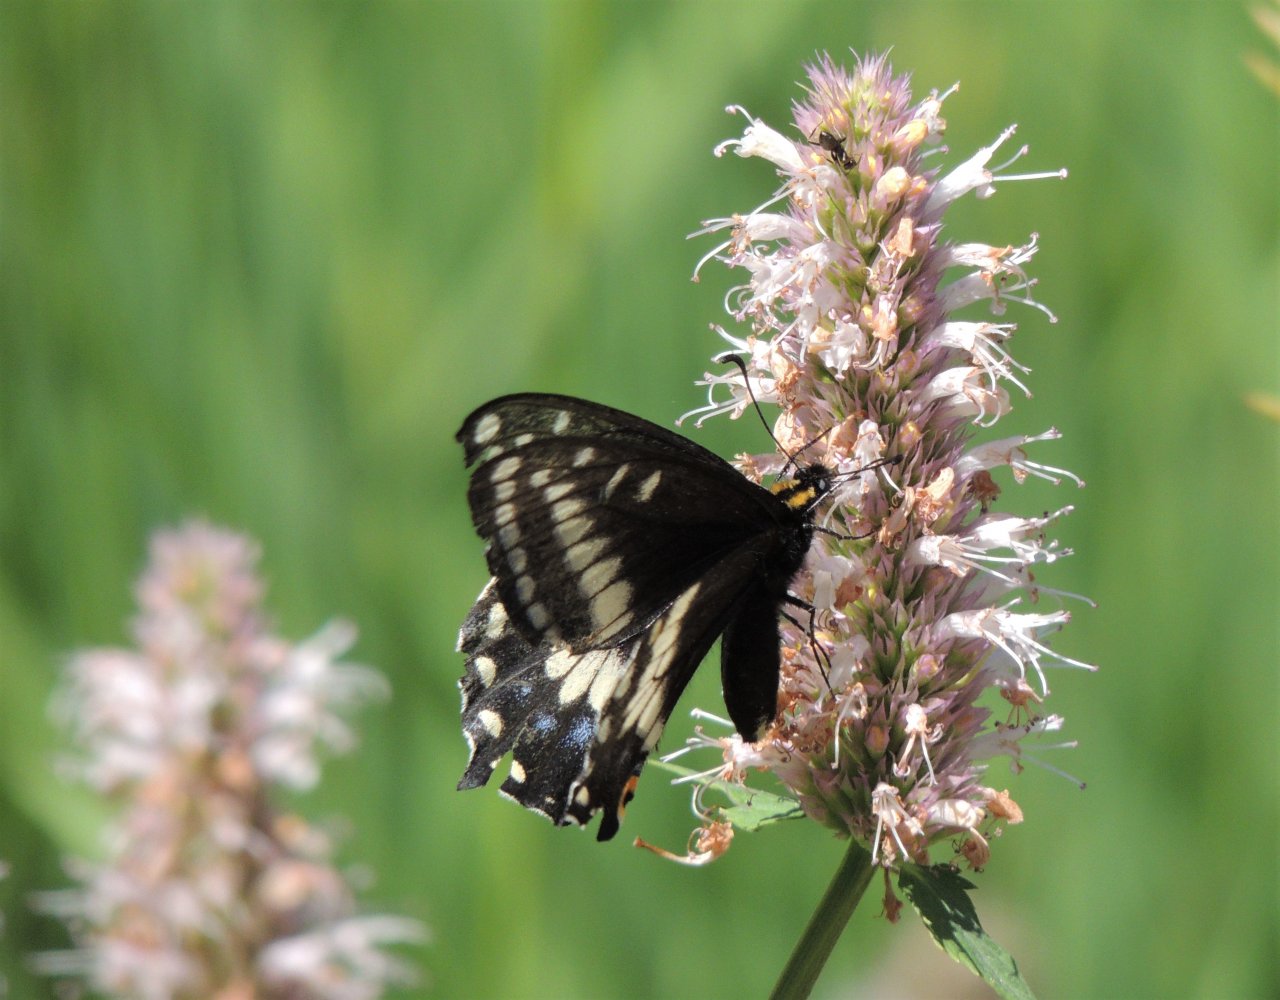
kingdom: Animalia
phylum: Arthropoda
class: Insecta
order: Lepidoptera
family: Papilionidae
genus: Papilio
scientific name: Papilio indra
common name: Indra Swallowtail
